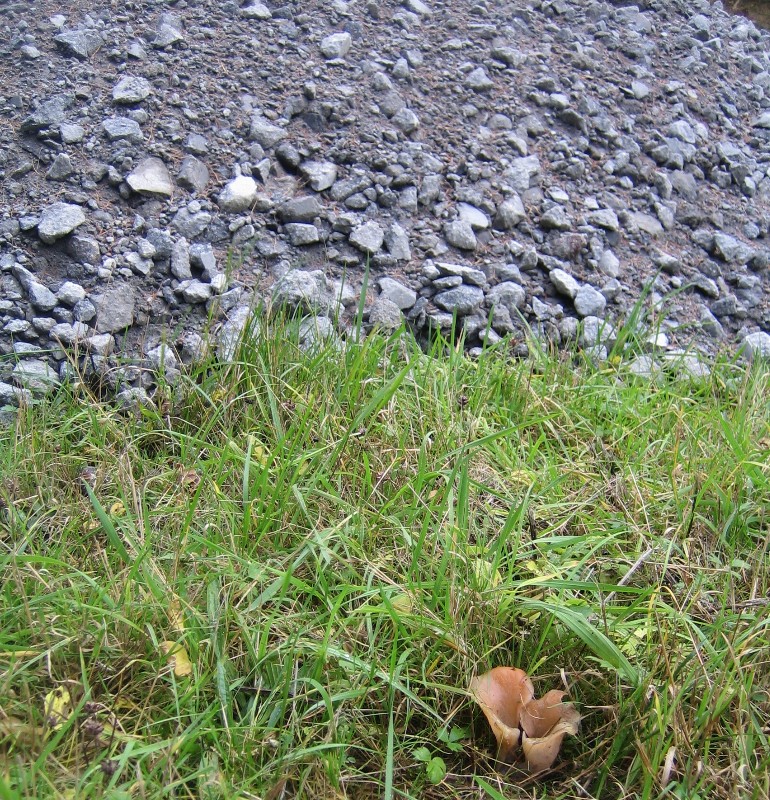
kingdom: Fungi
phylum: Basidiomycota
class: Agaricomycetes
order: Auriculariales
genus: Guepinia
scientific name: Guepinia helvelloides
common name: bævretunge
